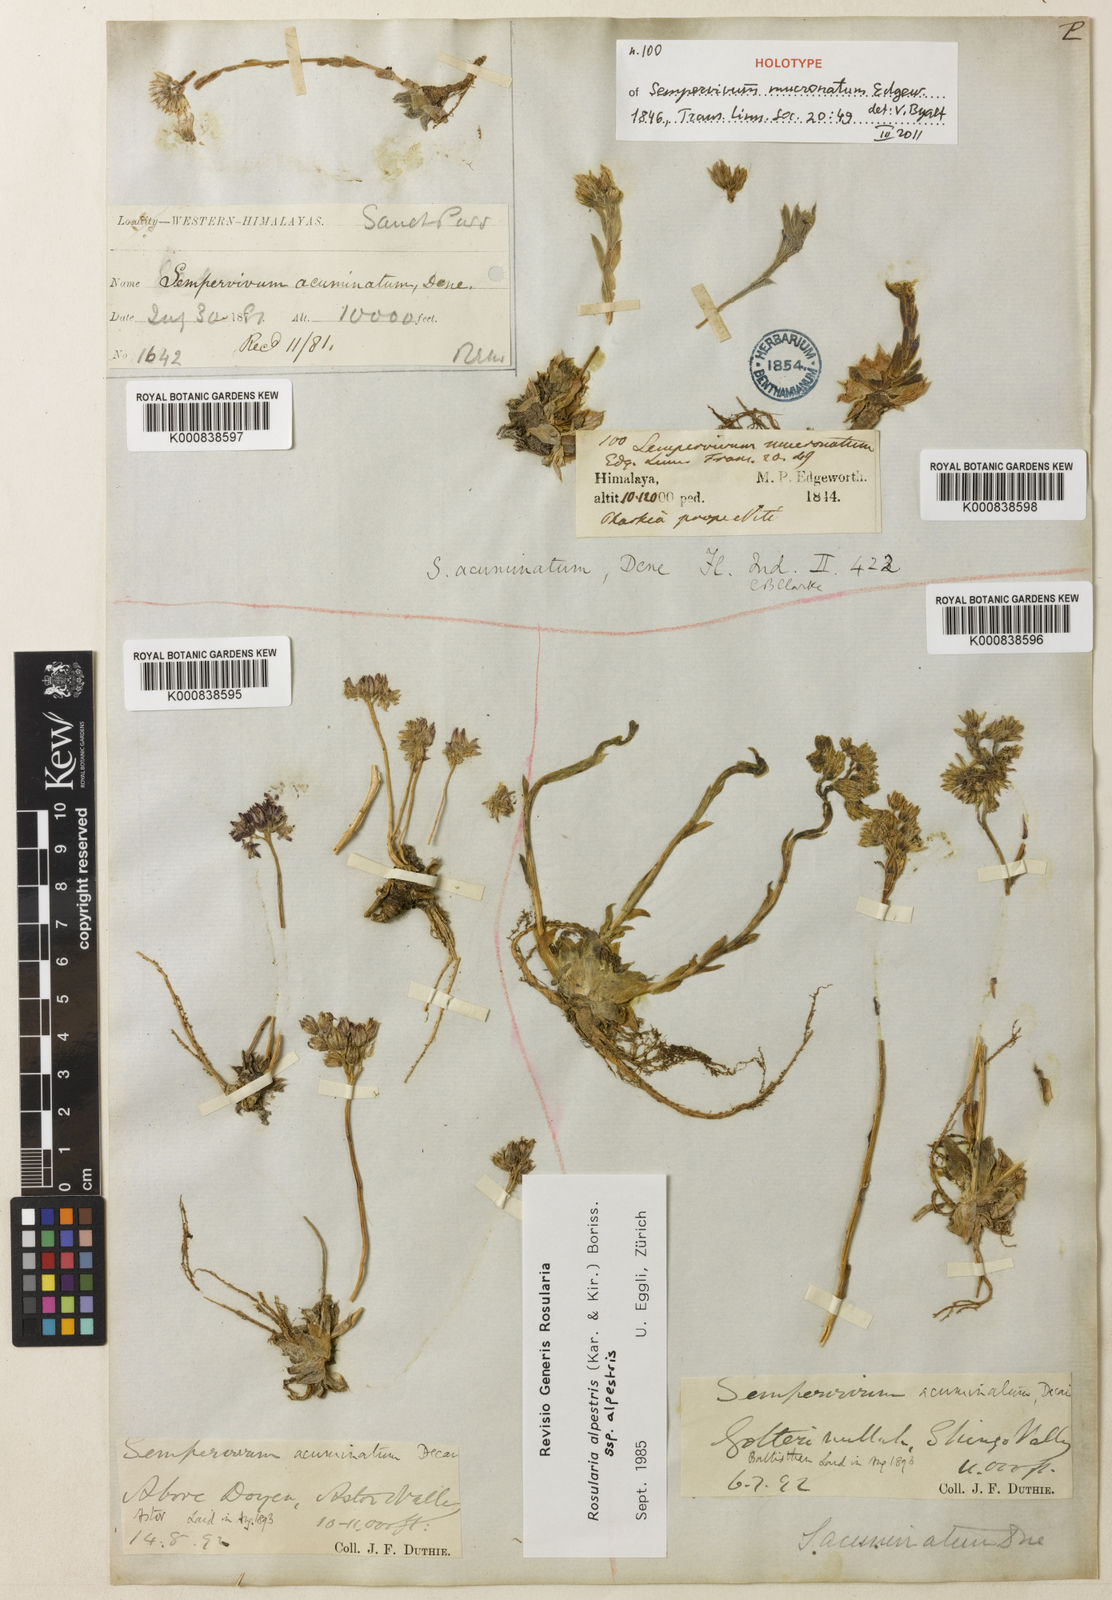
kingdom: Plantae
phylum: Tracheophyta
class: Magnoliopsida
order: Saxifragales
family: Crassulaceae
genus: Rosularia
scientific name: Rosularia alpestris
